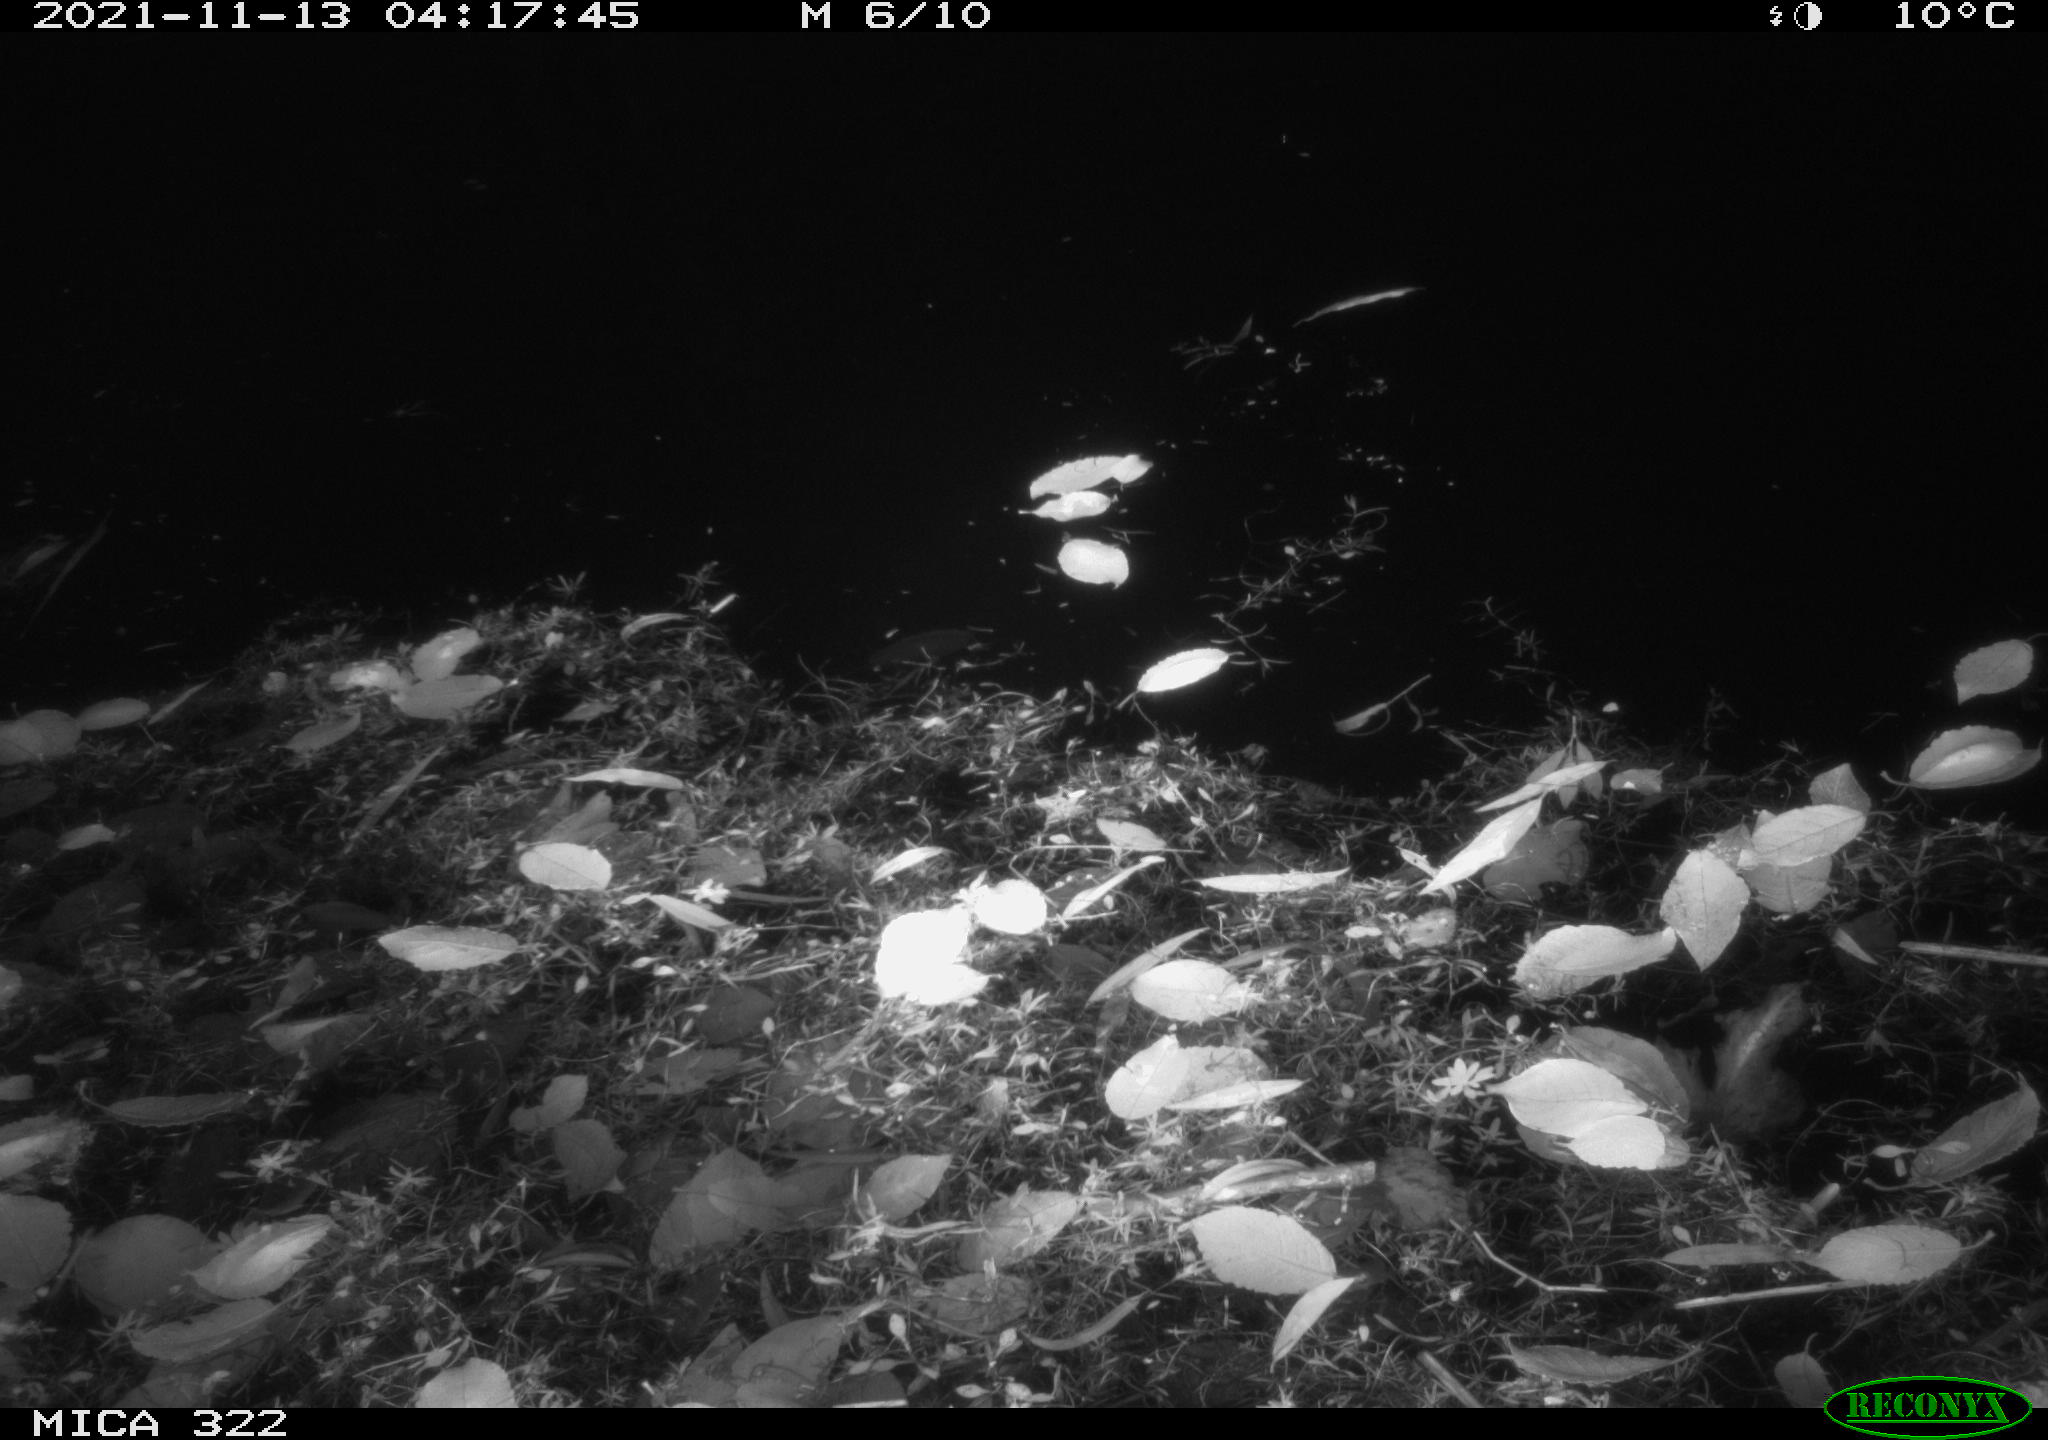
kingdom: Animalia
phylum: Chordata
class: Aves
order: Anseriformes
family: Anatidae
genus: Anas
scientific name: Anas platyrhynchos
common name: Mallard
